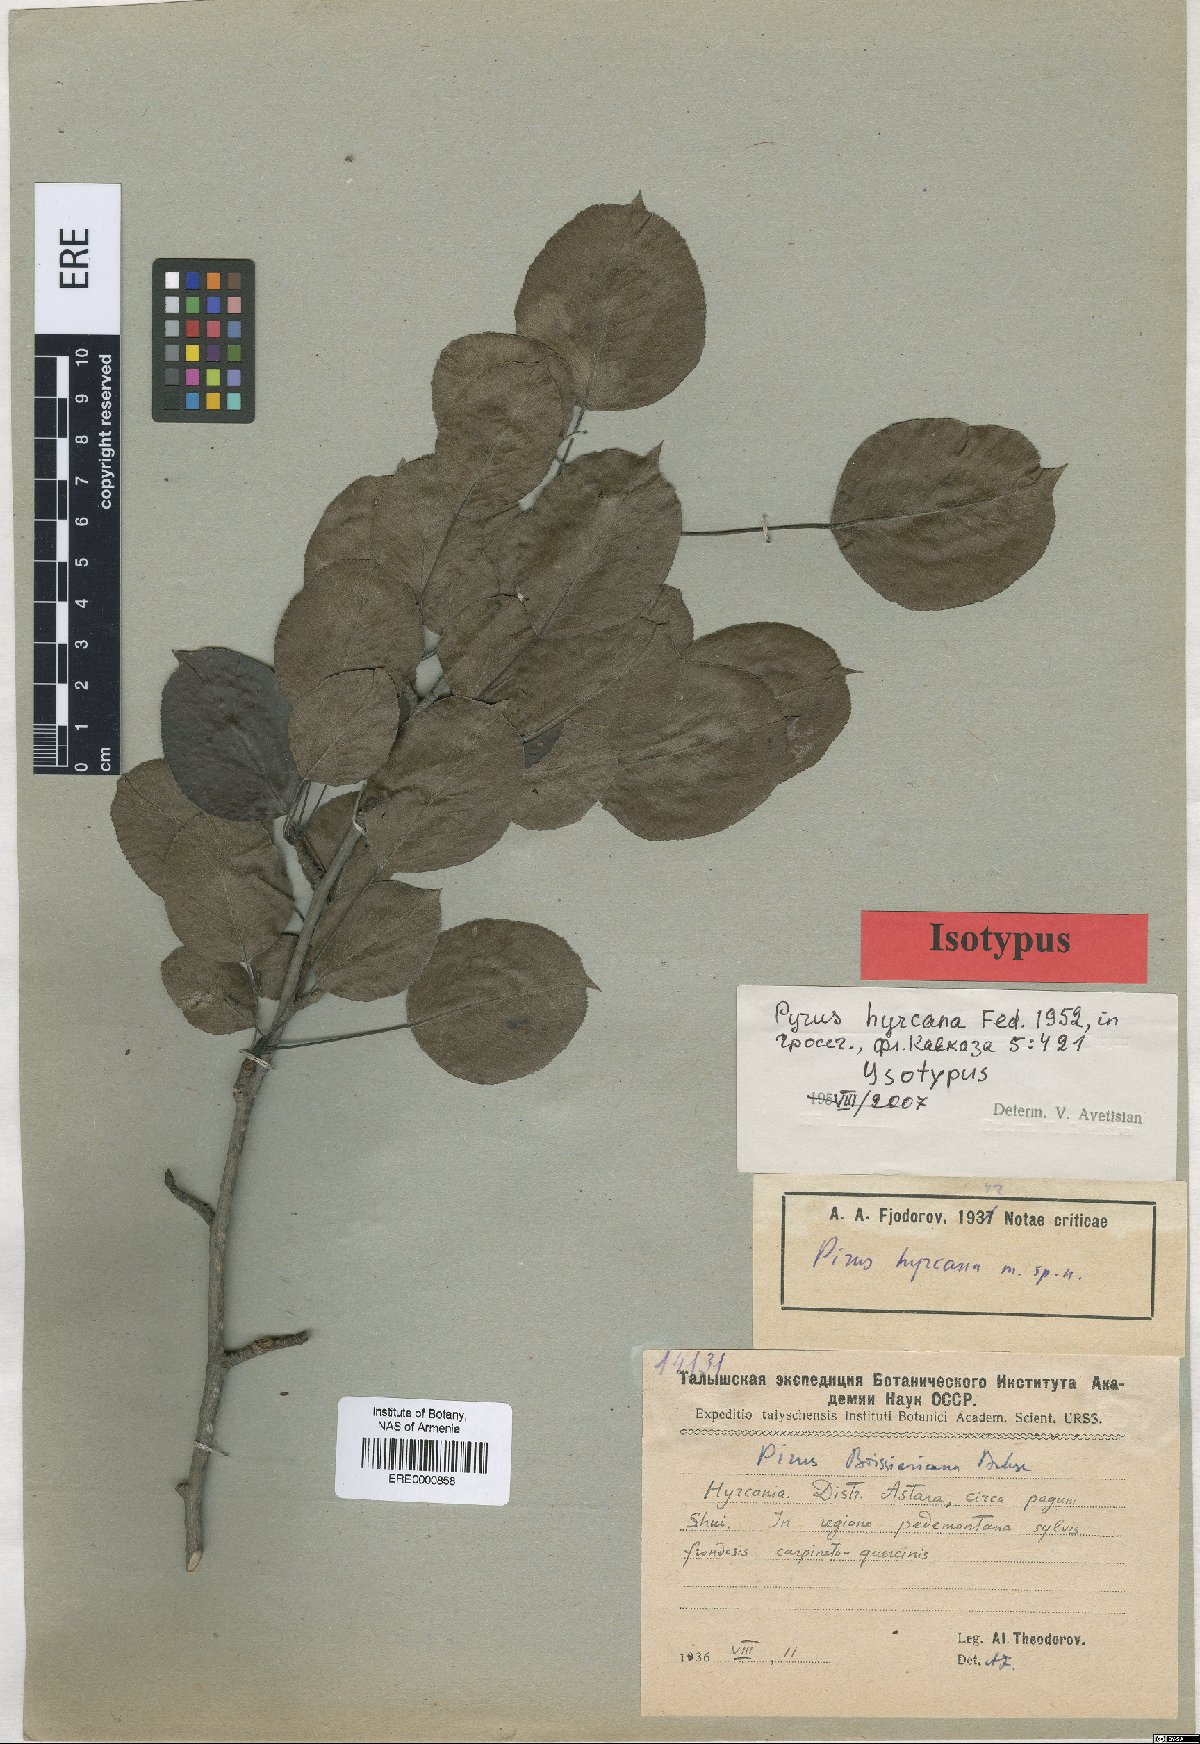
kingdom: Plantae
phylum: Tracheophyta
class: Magnoliopsida
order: Rosales
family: Rosaceae
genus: Pyrus
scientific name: Pyrus hyrcana
